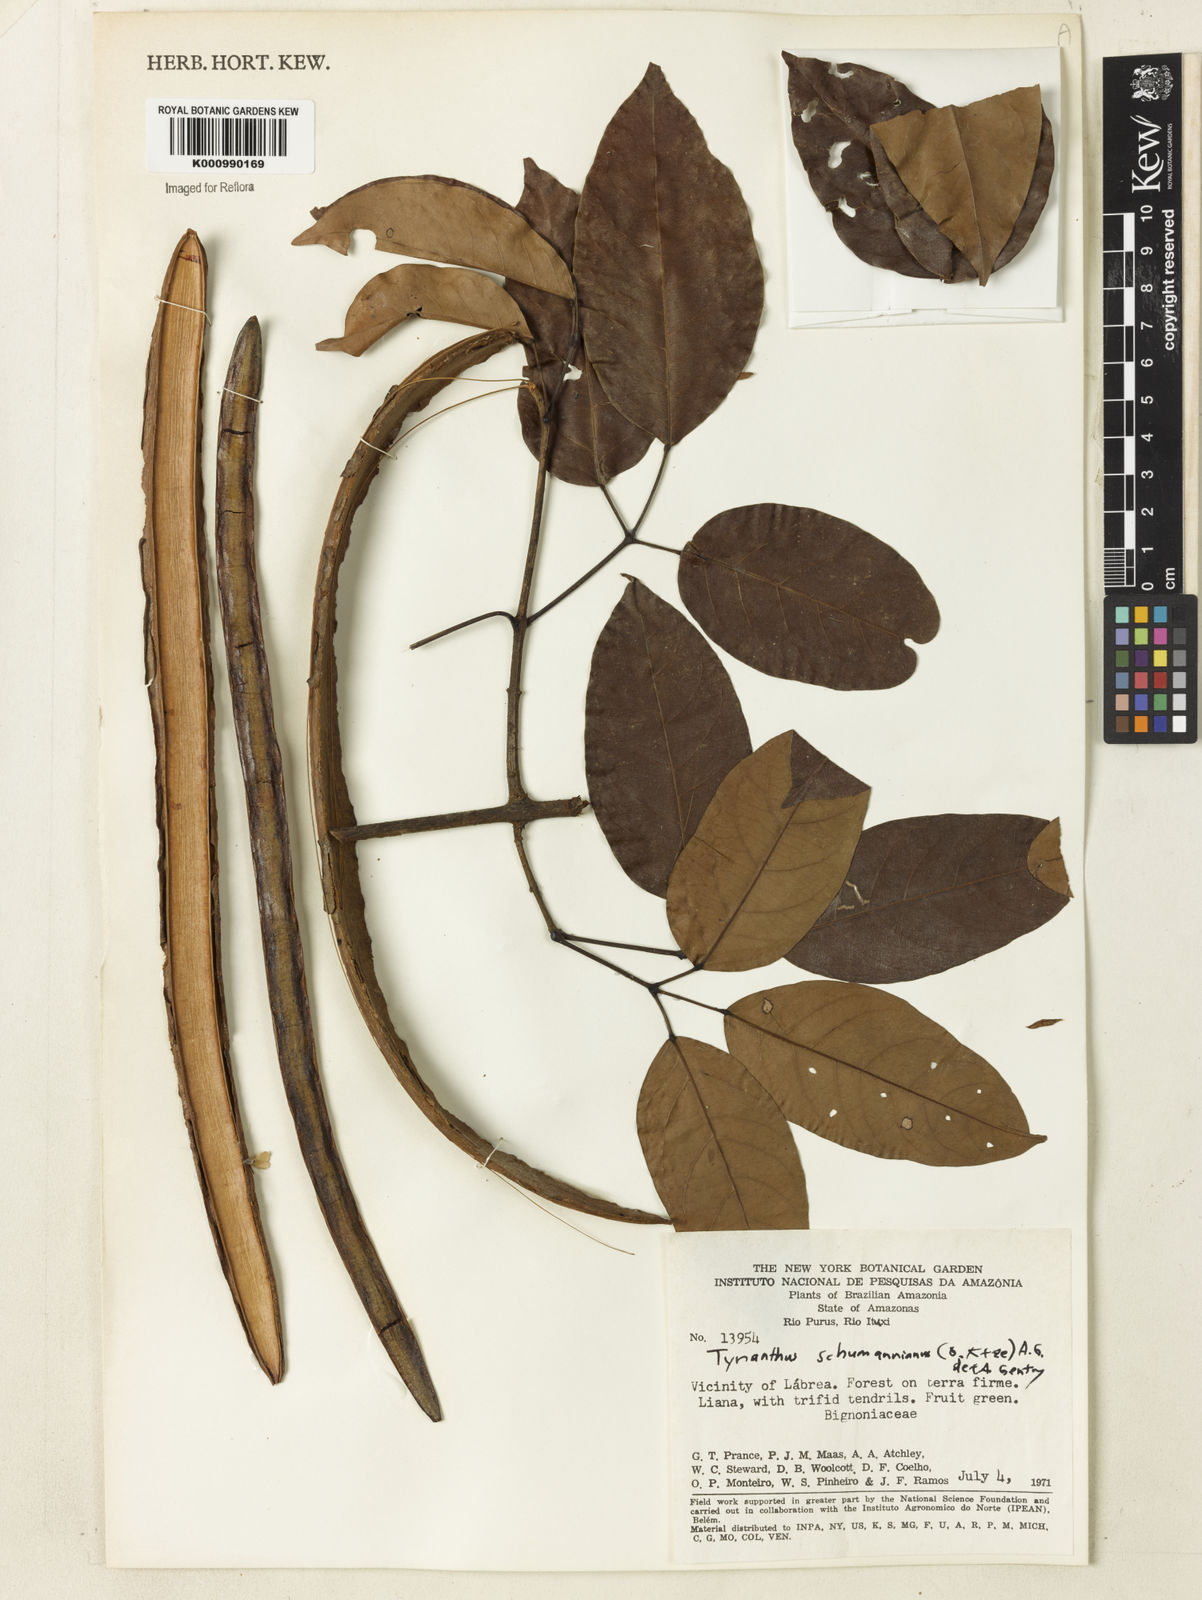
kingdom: Plantae
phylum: Tracheophyta
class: Magnoliopsida
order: Lamiales
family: Bignoniaceae
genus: Tynanthus
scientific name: Tynanthus schumannianus
